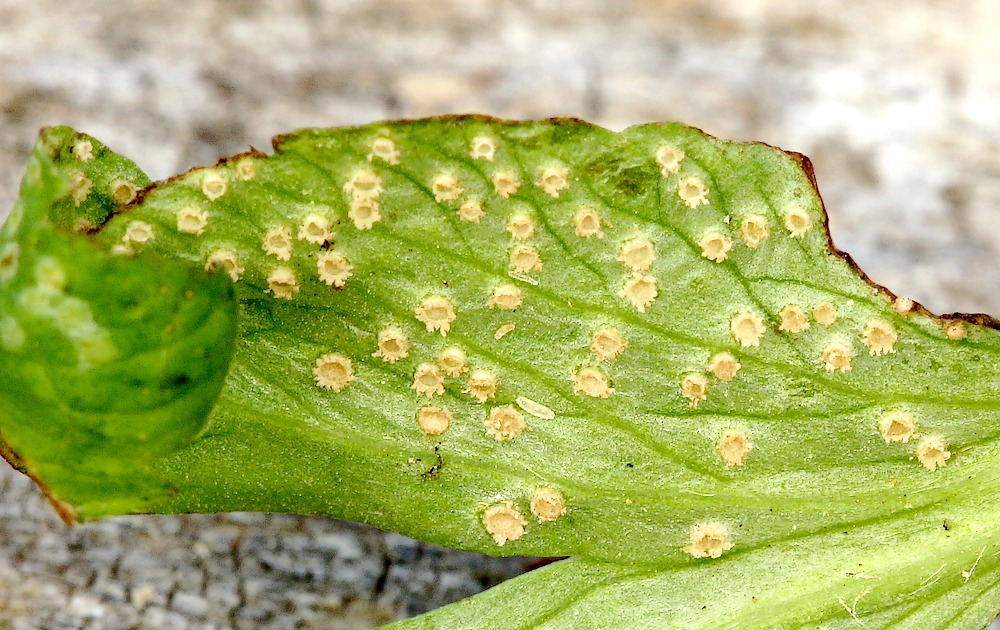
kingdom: Fungi
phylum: Basidiomycota
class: Pucciniomycetes
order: Pucciniales
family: Ochropsoraceae
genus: Ochropsora
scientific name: Ochropsora ariae
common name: anemone-okkerpletrust
